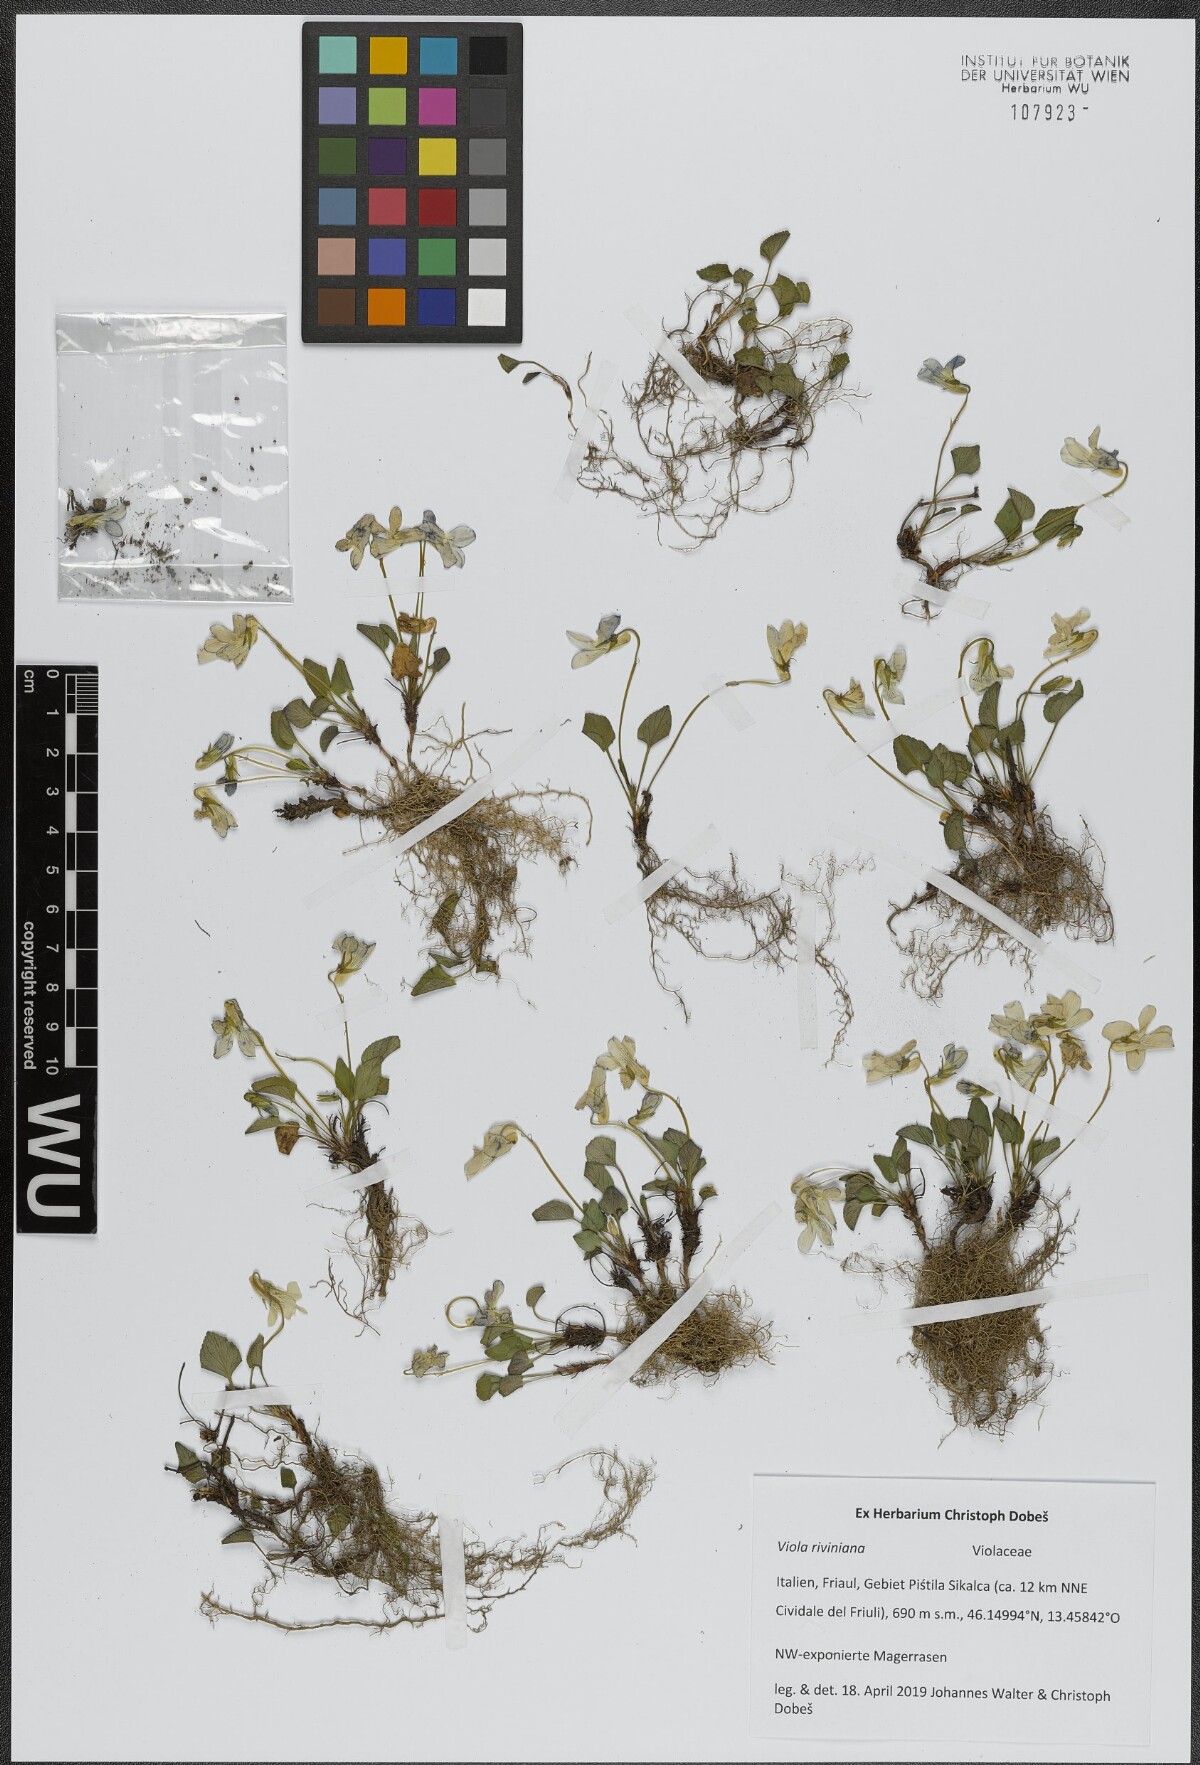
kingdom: Plantae
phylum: Tracheophyta
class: Magnoliopsida
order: Malpighiales
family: Violaceae
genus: Viola
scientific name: Viola riviniana
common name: Common dog-violet
